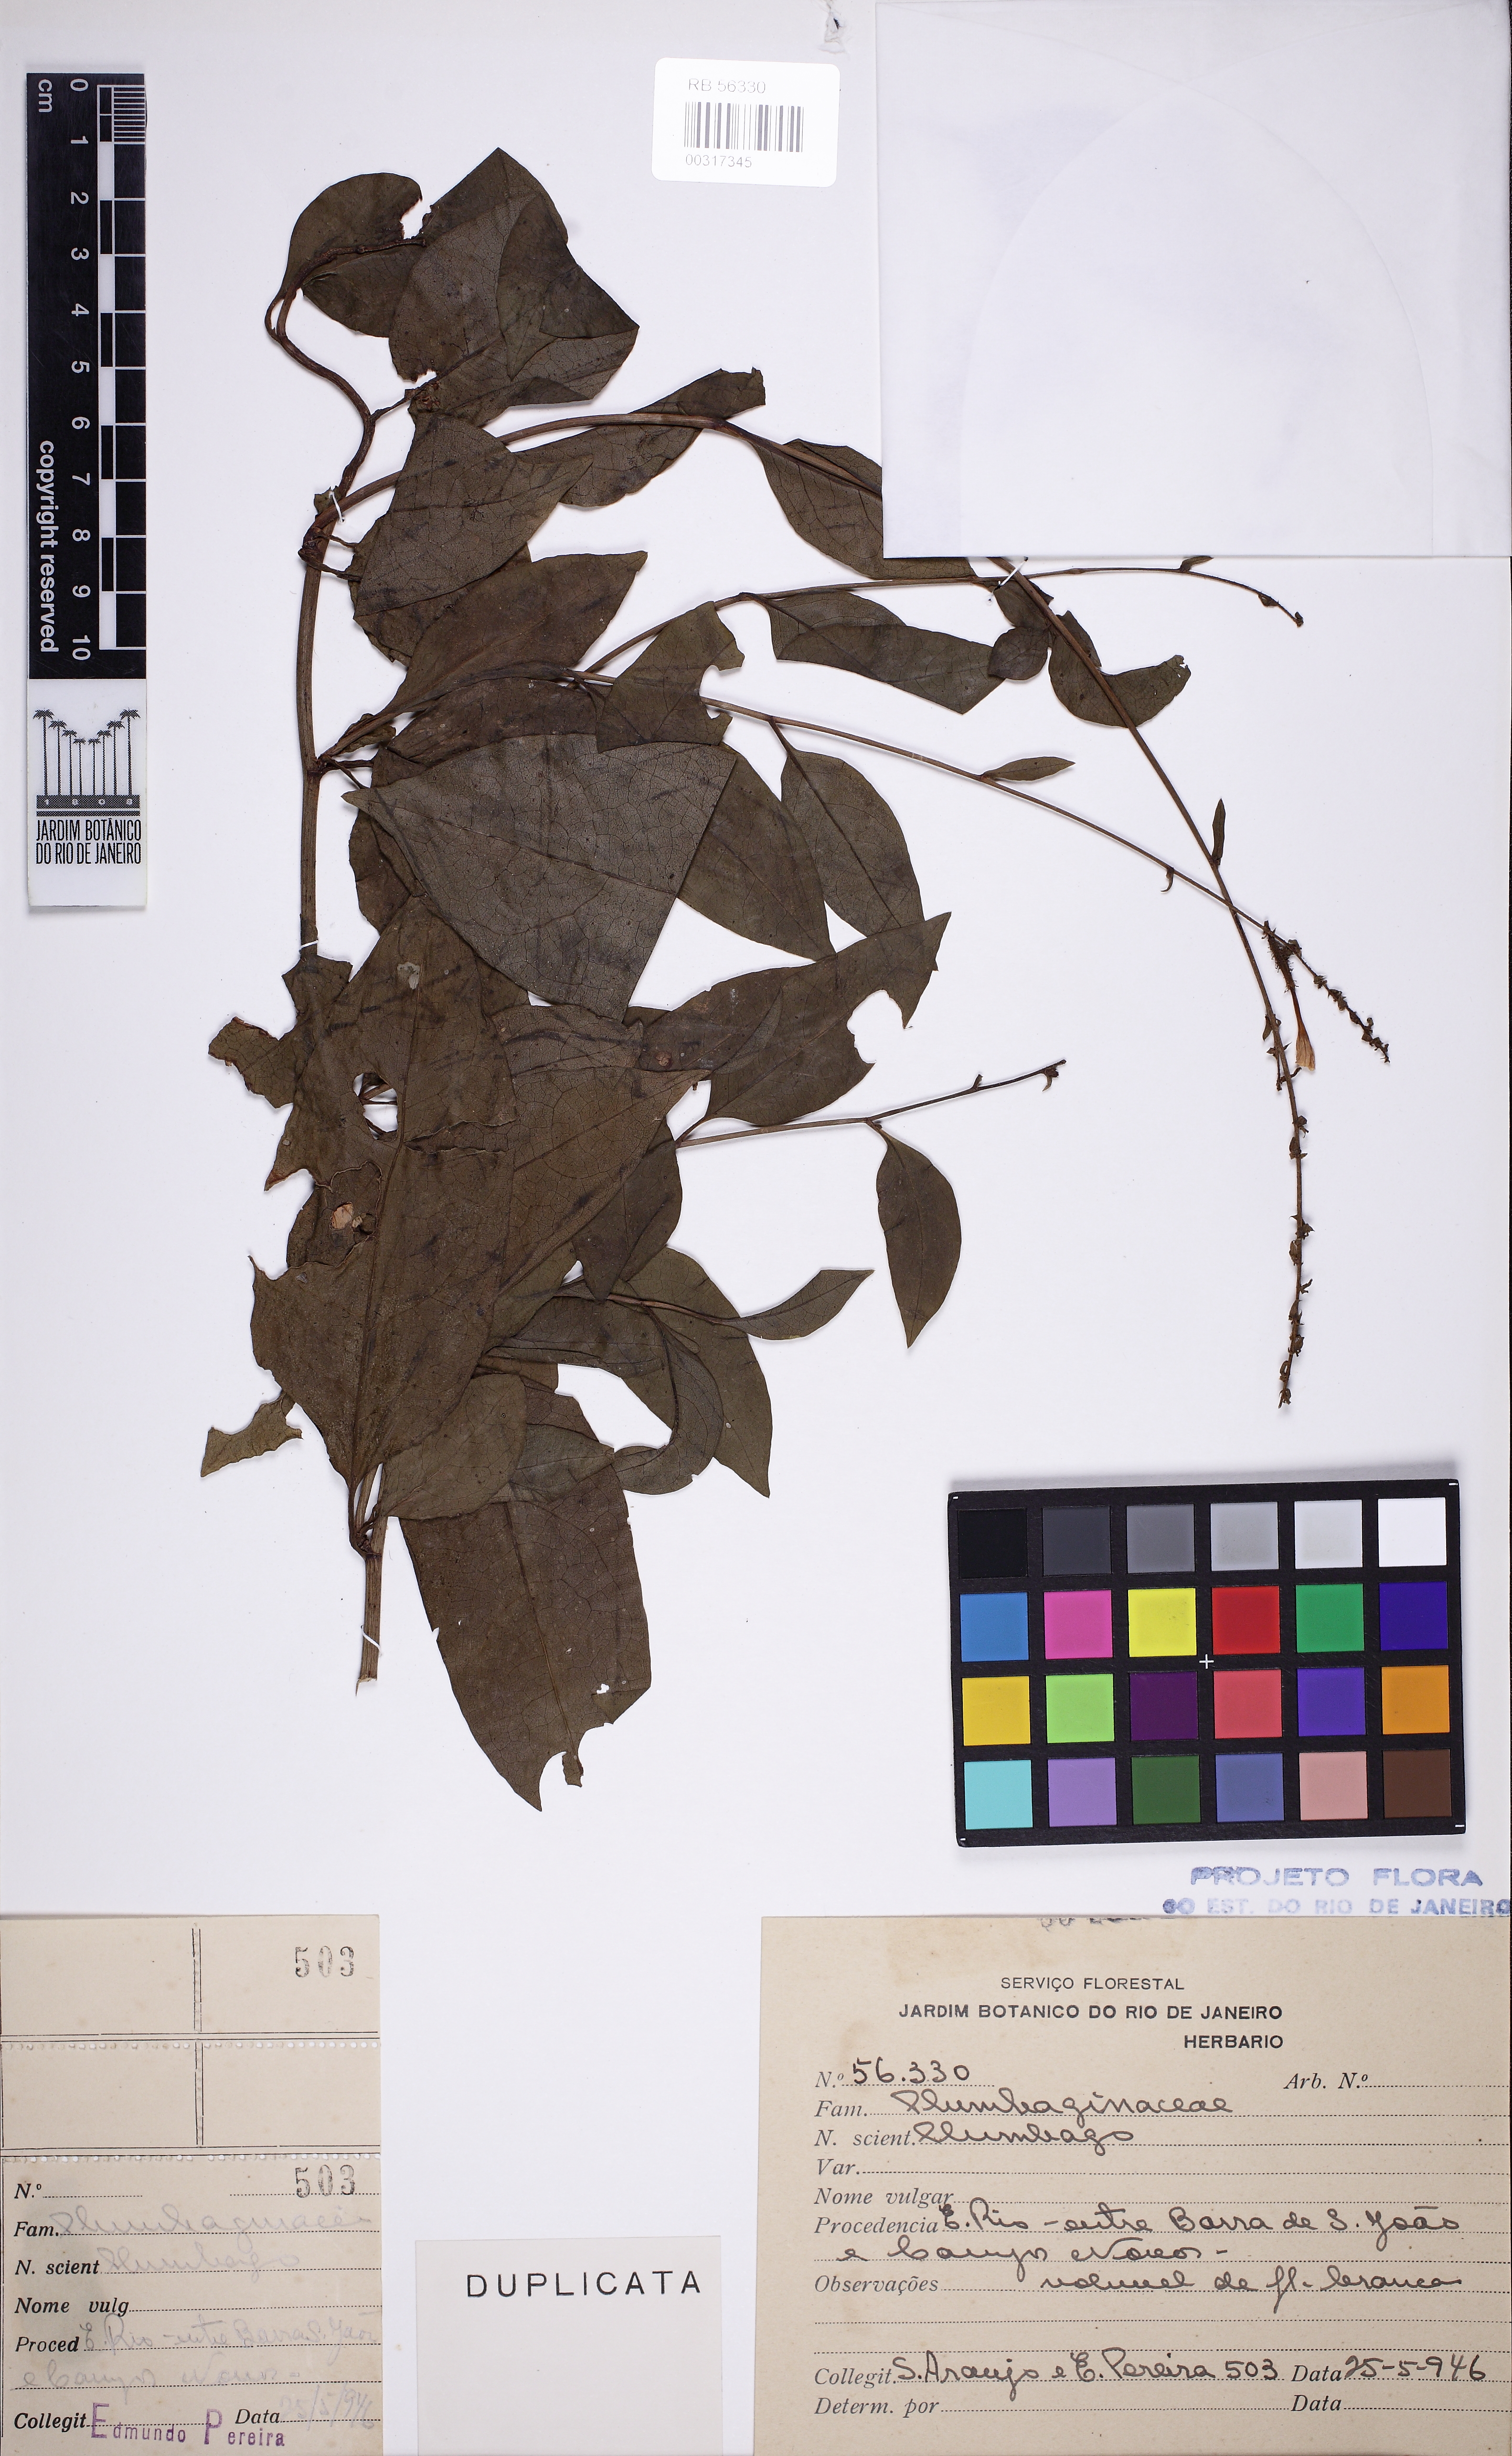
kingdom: Plantae
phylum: Tracheophyta
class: Magnoliopsida
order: Caryophyllales
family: Plumbaginaceae
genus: Plumbago
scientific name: Plumbago
